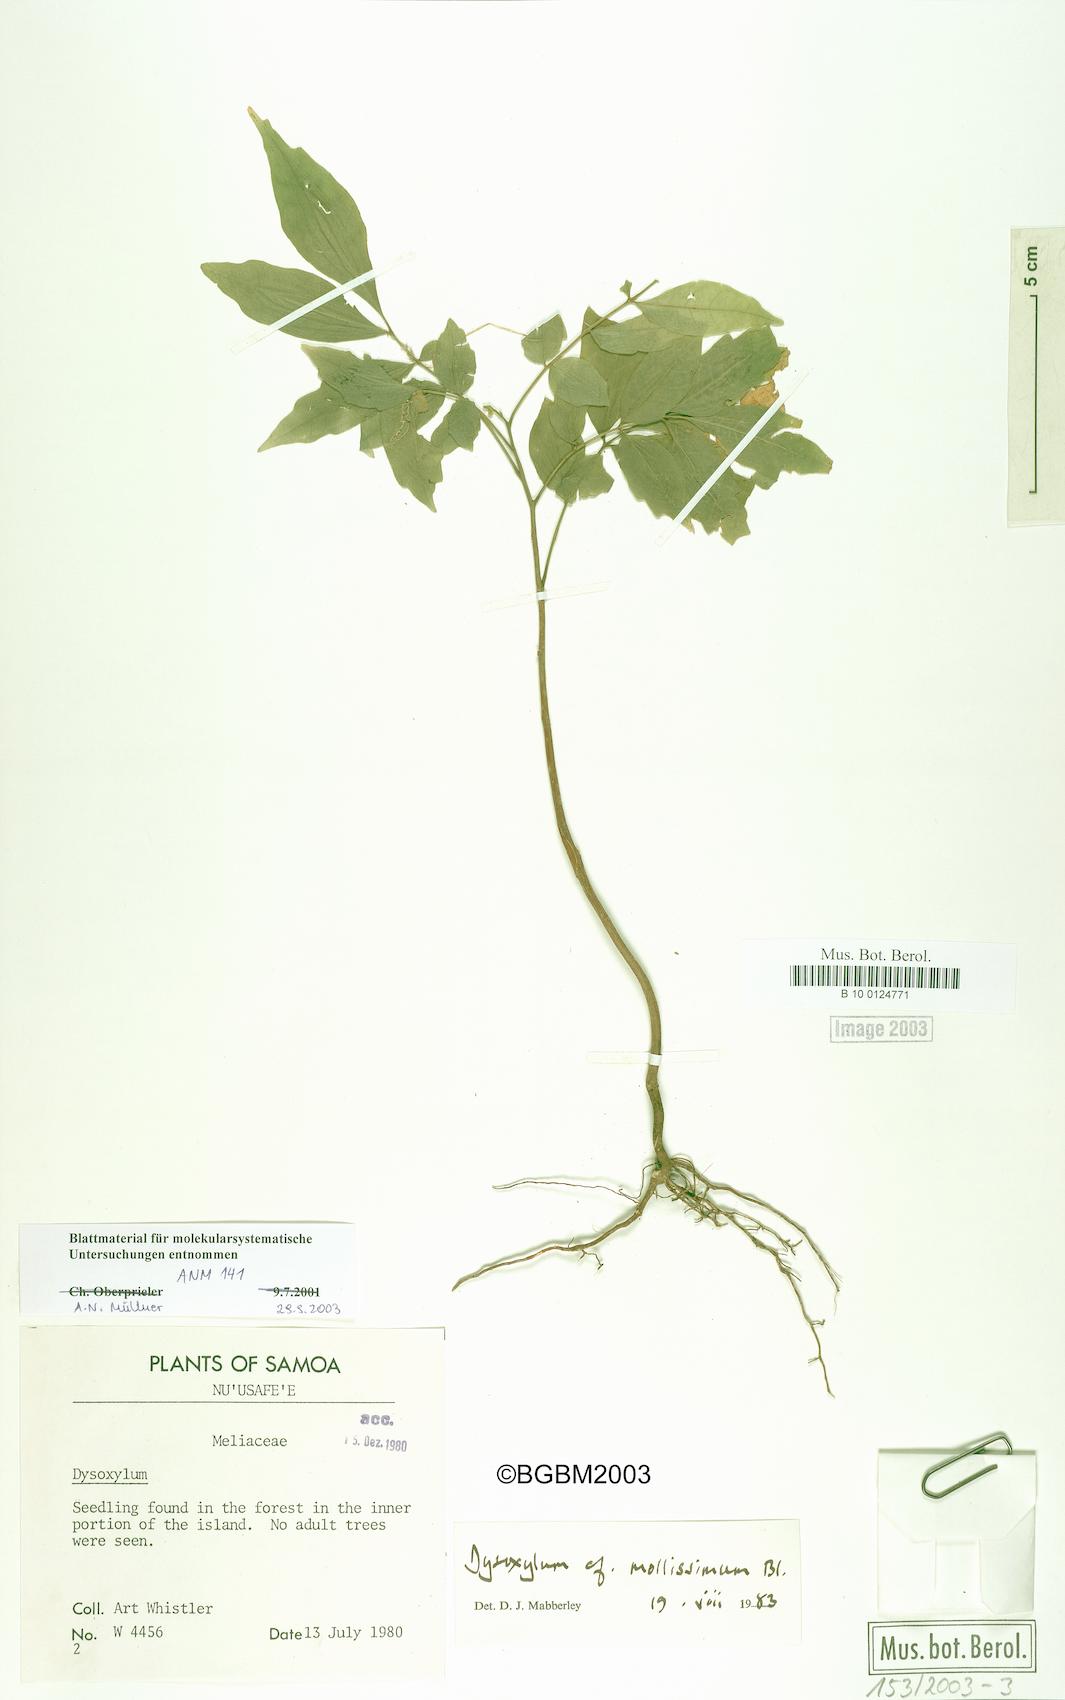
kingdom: Plantae
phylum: Tracheophyta
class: Magnoliopsida
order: Sapindales
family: Meliaceae
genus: Dysoxylum
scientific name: Dysoxylum mollissimum
